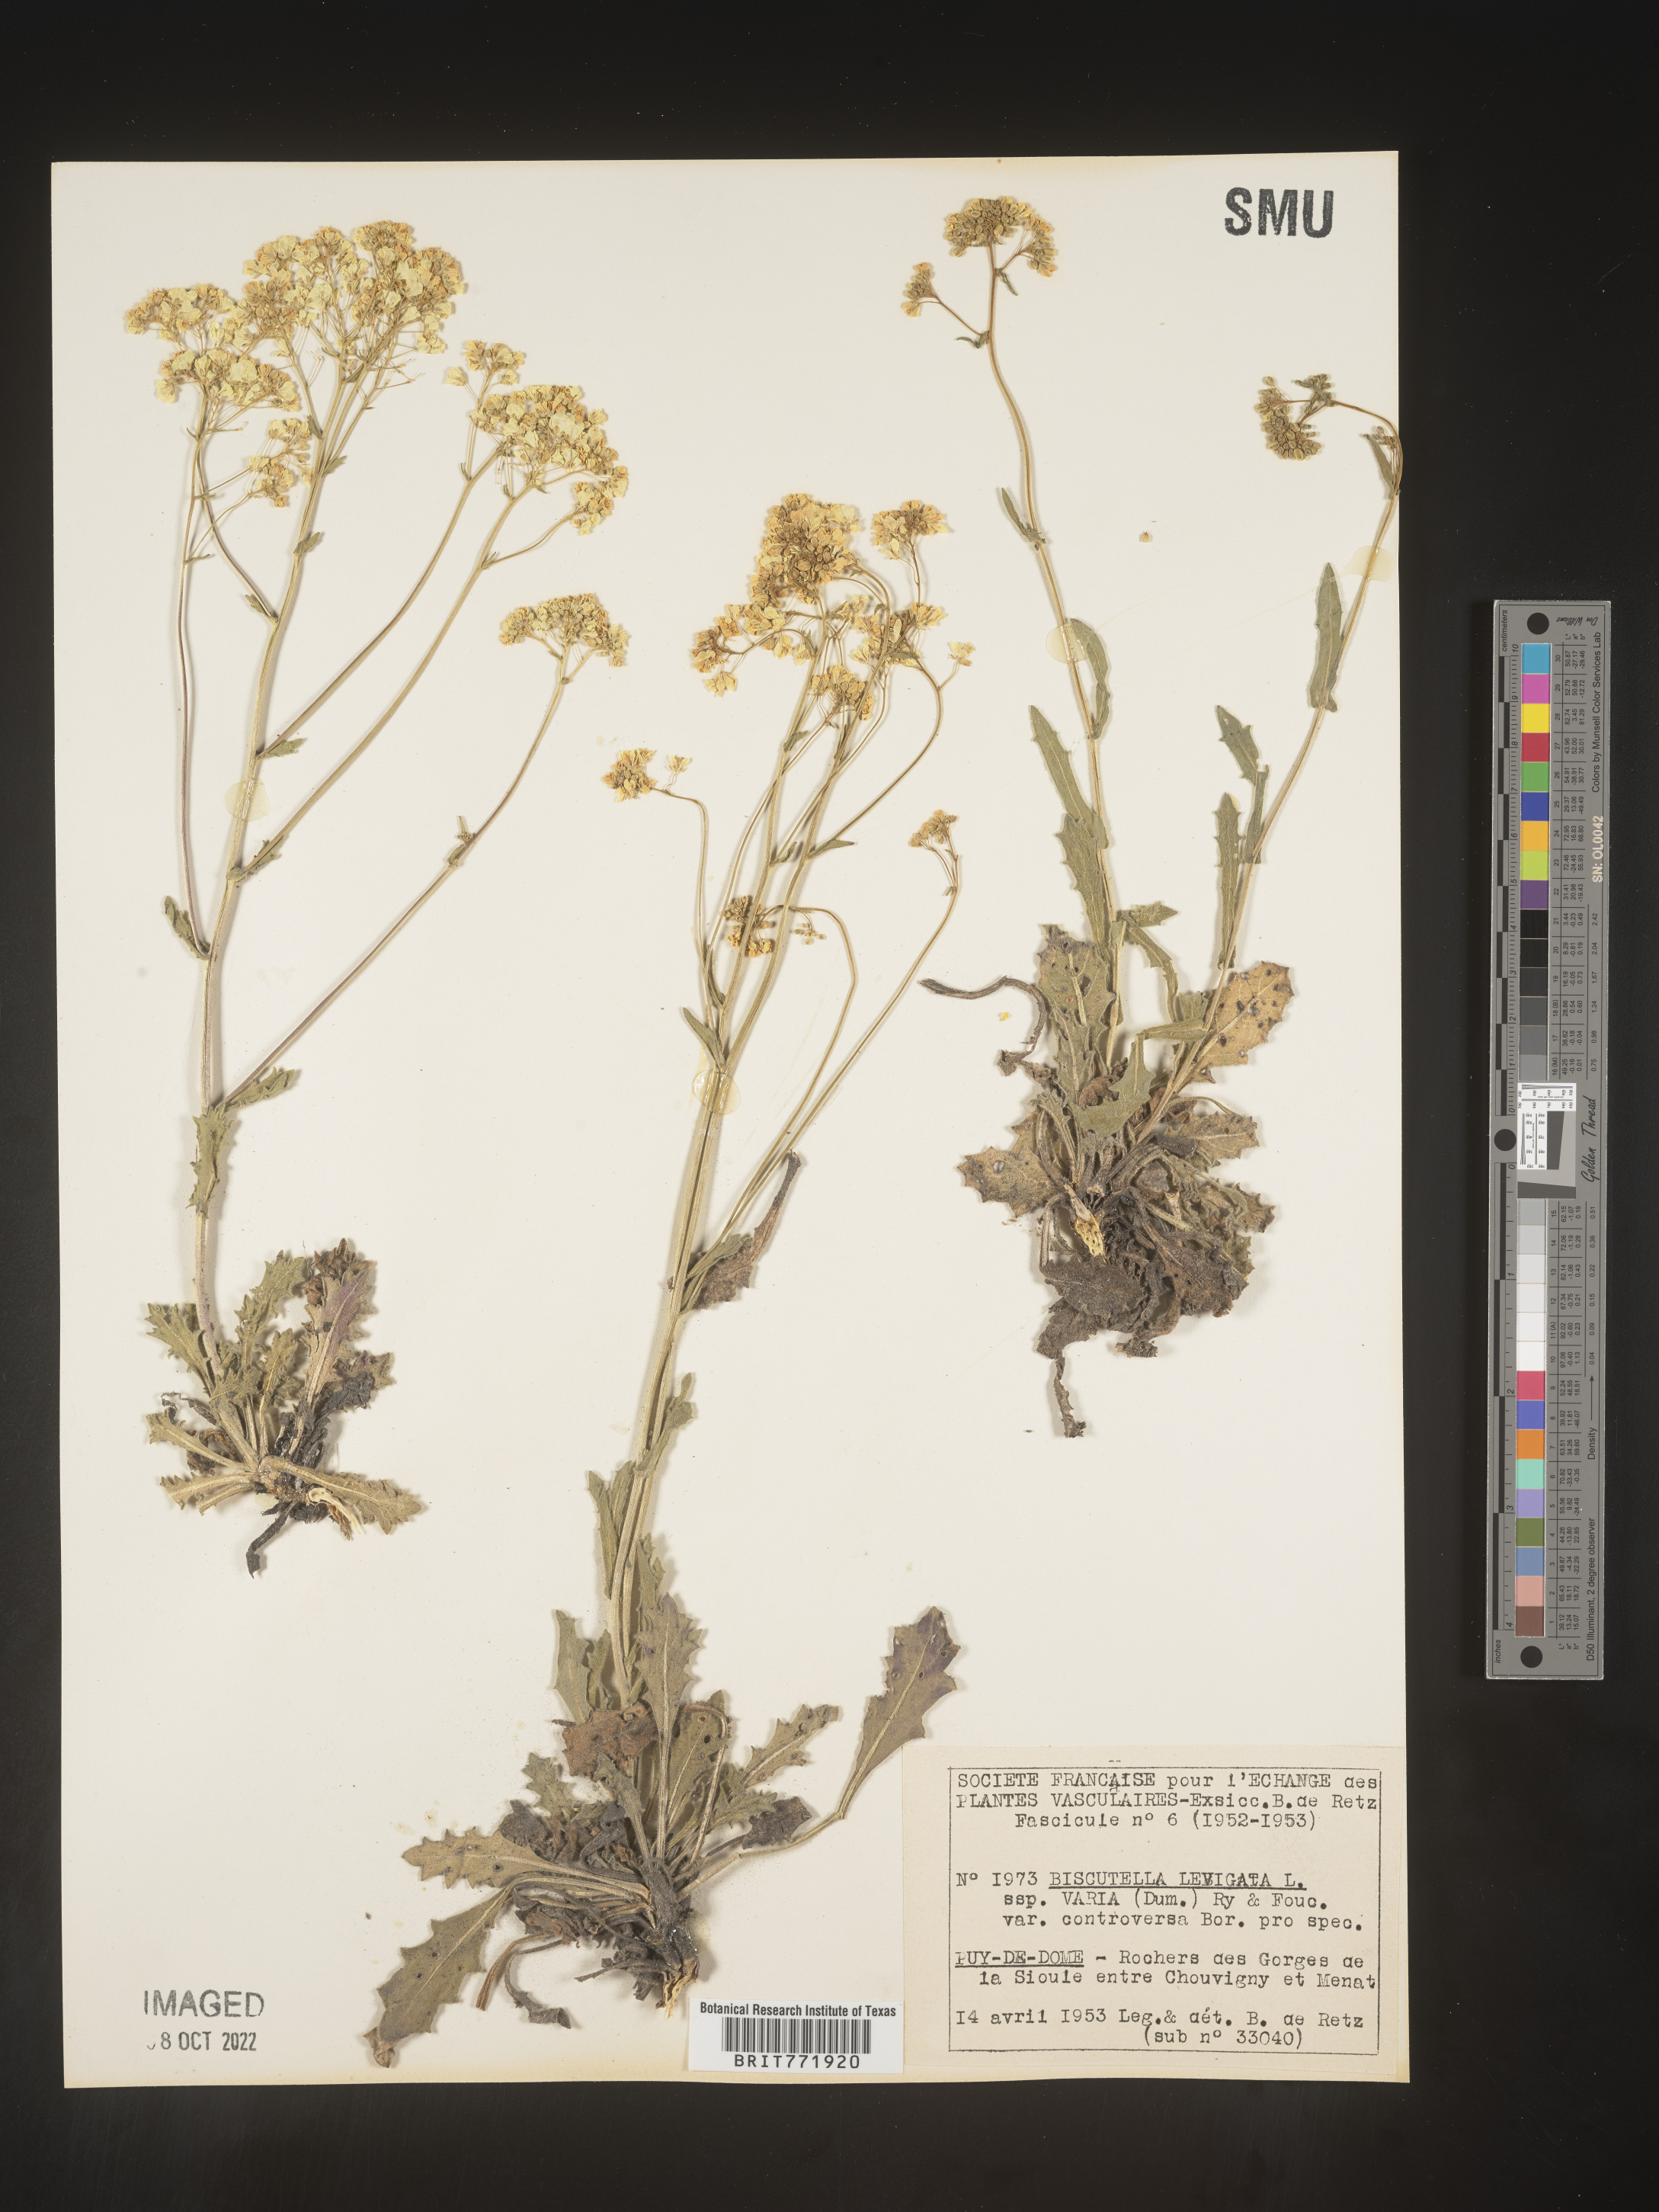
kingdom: Plantae
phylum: Tracheophyta
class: Magnoliopsida
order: Brassicales
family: Brassicaceae
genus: Biscutella
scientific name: Biscutella
